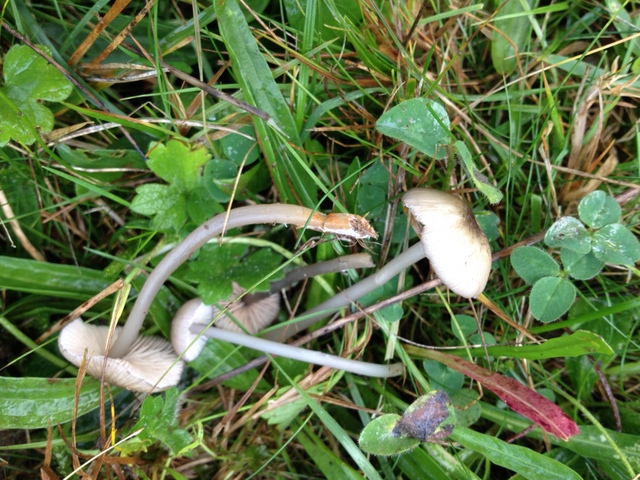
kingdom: Fungi
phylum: Basidiomycota
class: Agaricomycetes
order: Agaricales
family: Entolomataceae
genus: Entoloma
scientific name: Entoloma exile
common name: rødplettet rødblad
